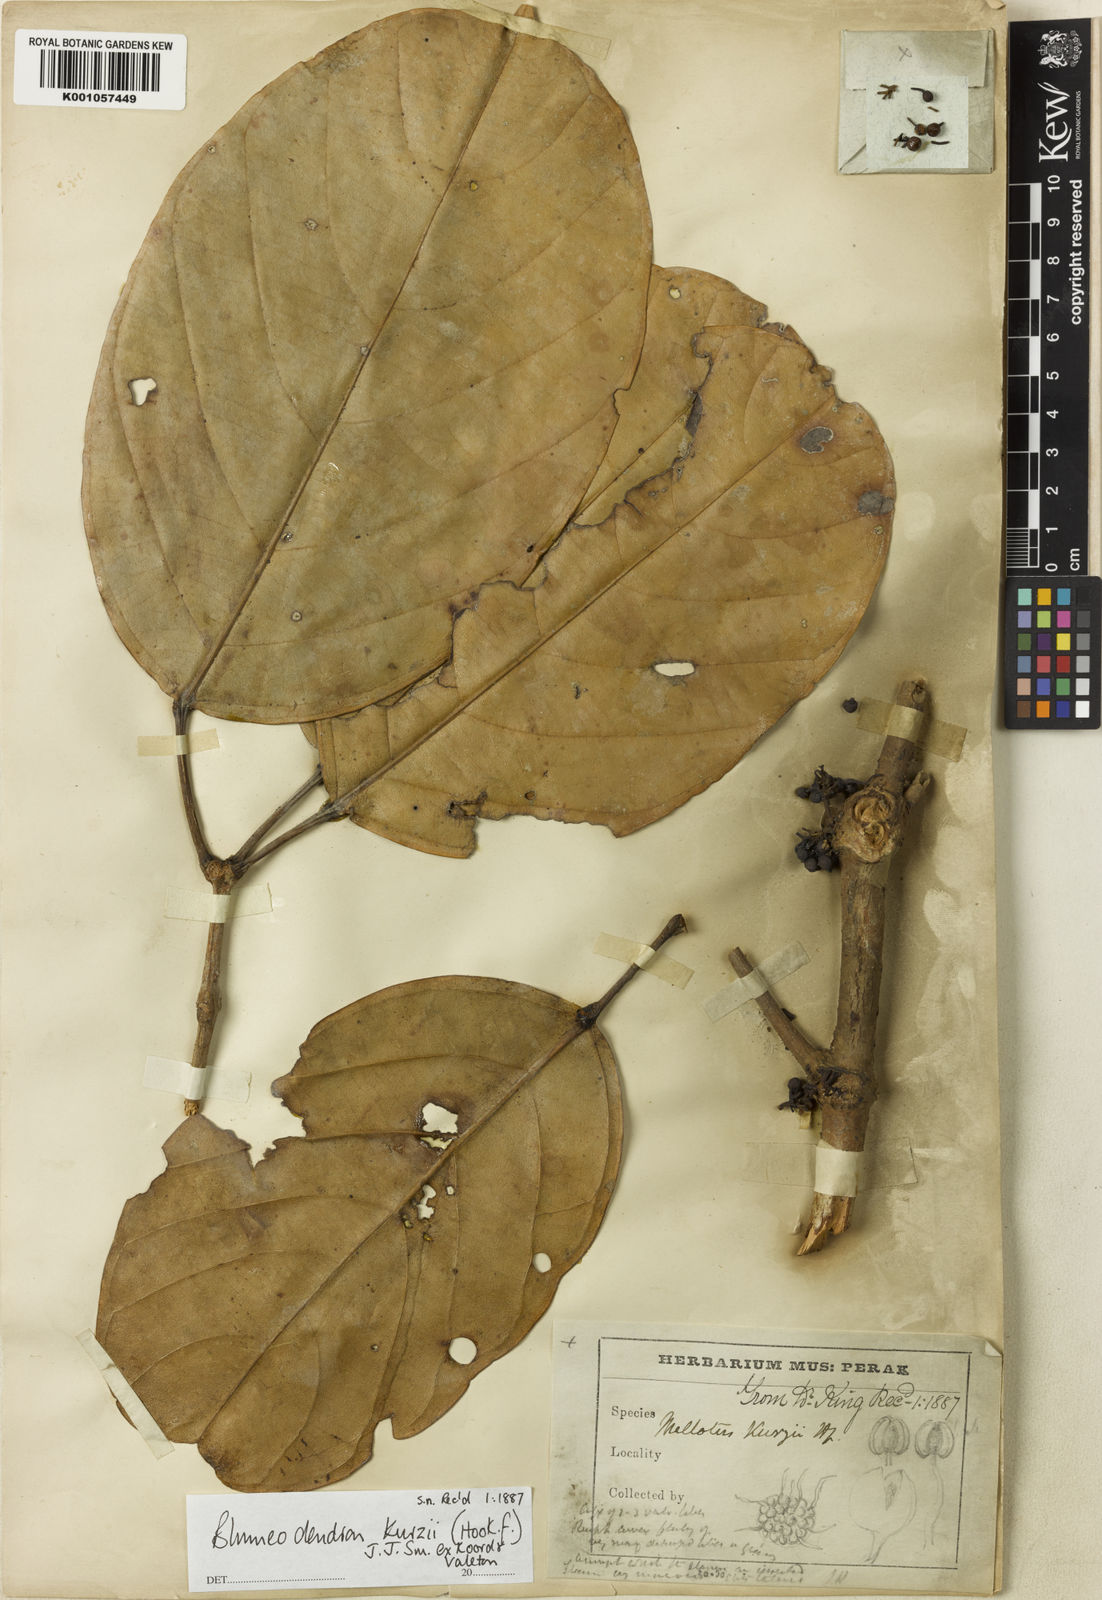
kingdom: Plantae
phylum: Tracheophyta
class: Magnoliopsida
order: Malpighiales
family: Euphorbiaceae
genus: Blumeodendron
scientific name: Blumeodendron kurzii
